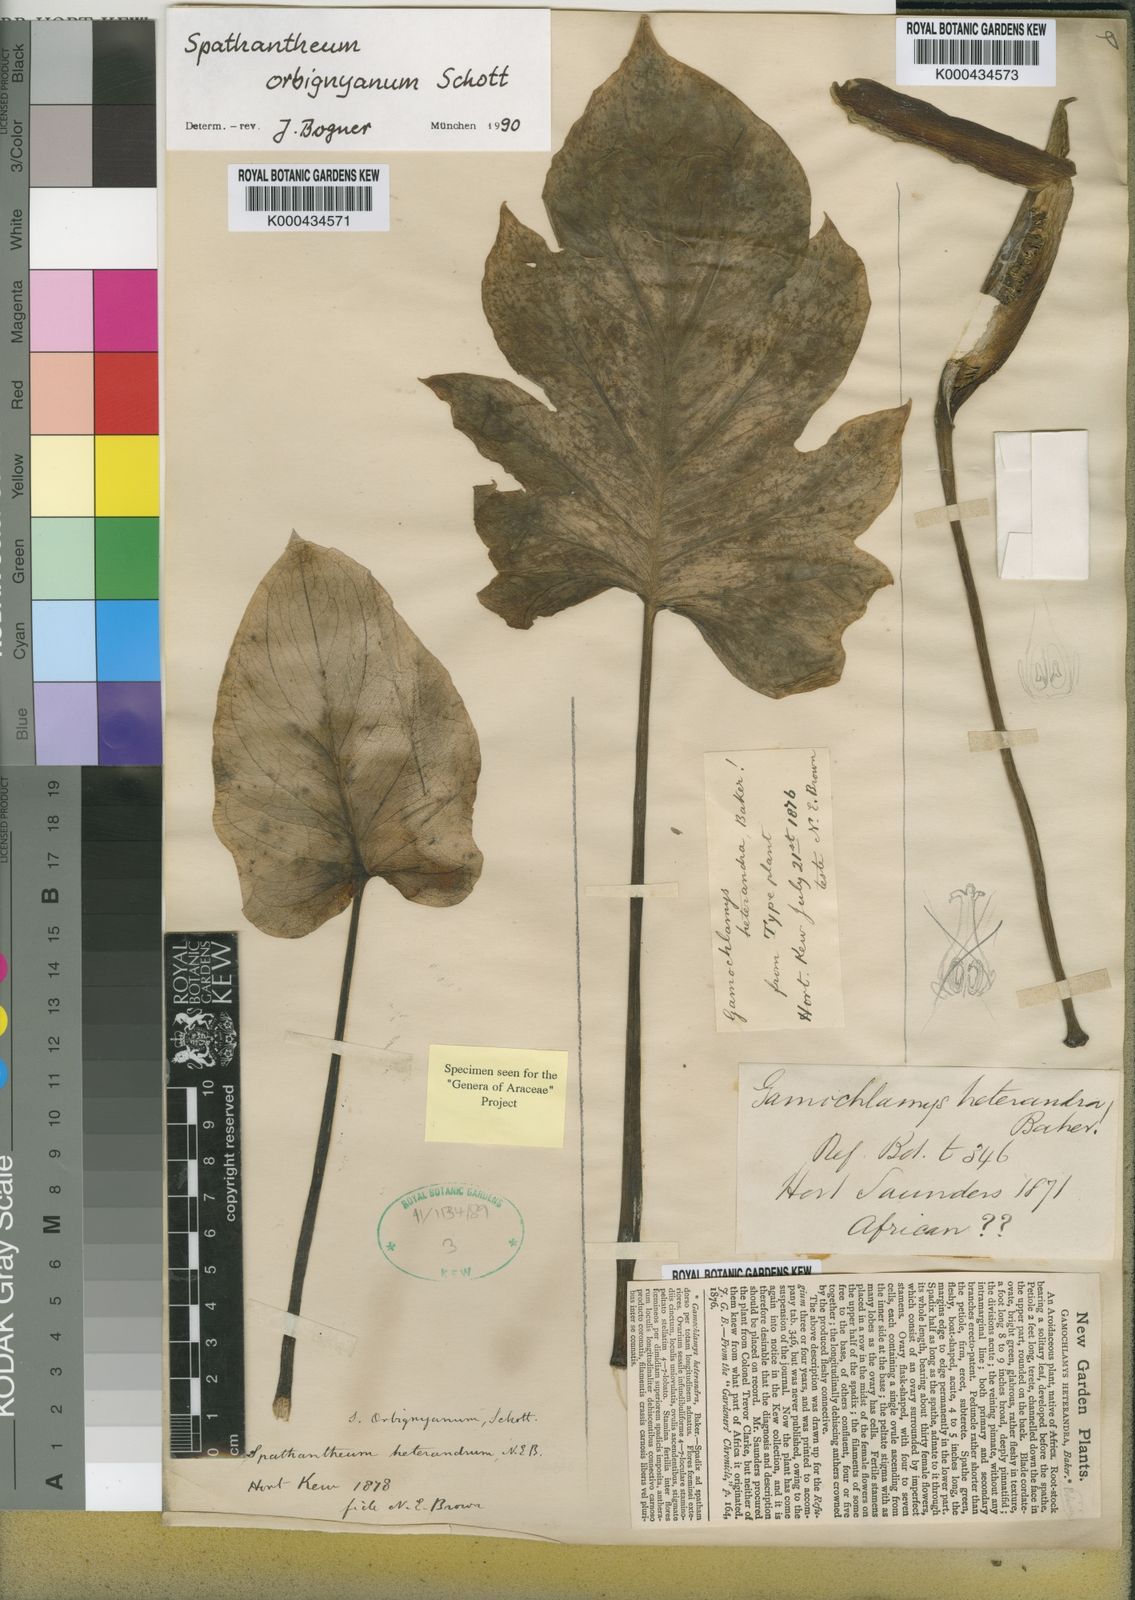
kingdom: Plantae
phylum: Tracheophyta
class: Liliopsida
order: Alismatales
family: Araceae
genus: Spathantheum
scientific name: Spathantheum orbignyanum
